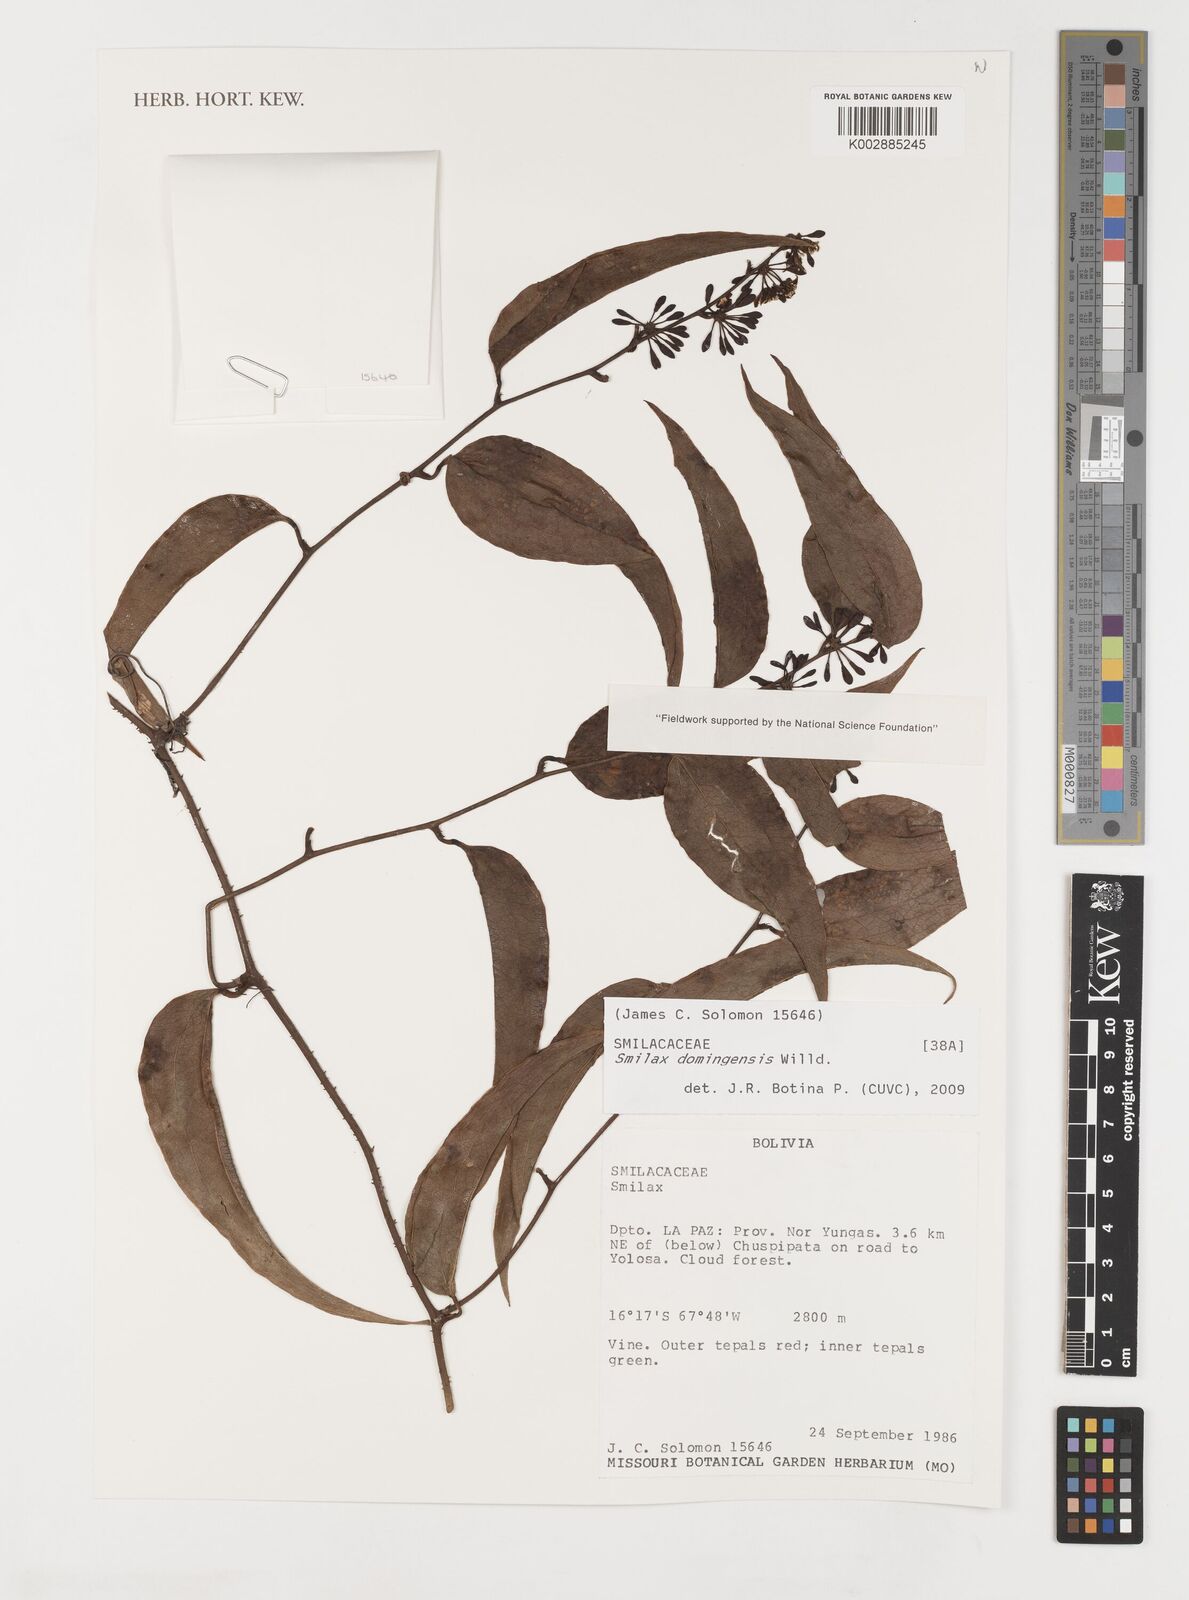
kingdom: Plantae
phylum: Tracheophyta
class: Liliopsida
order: Liliales
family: Smilacaceae
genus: Smilax
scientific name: Smilax domingensis
